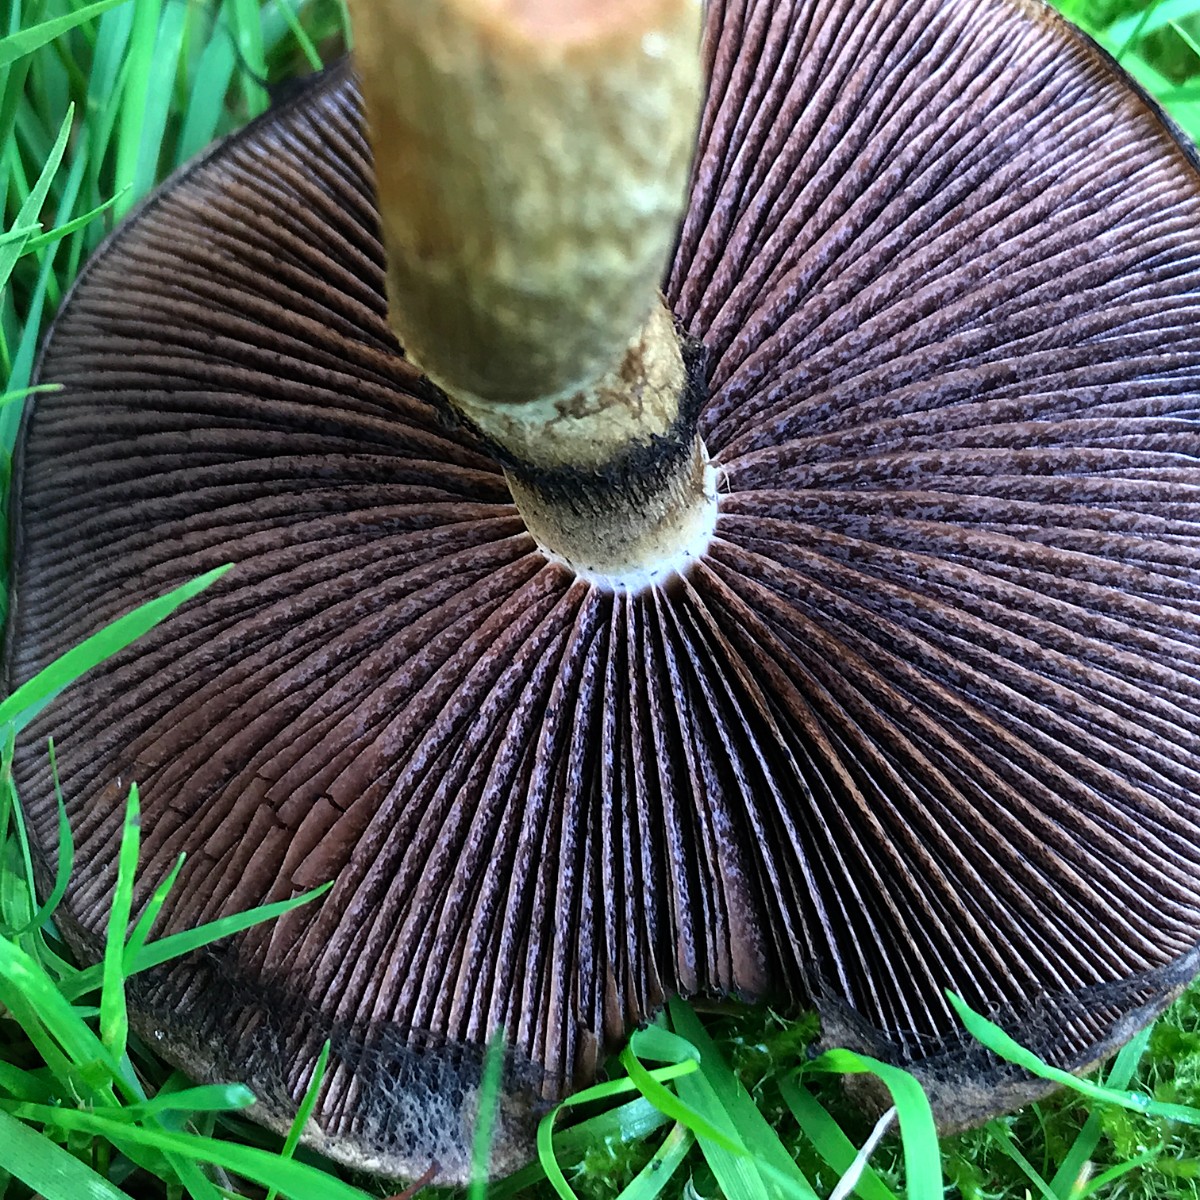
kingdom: Fungi
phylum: Basidiomycota
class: Agaricomycetes
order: Agaricales
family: Psathyrellaceae
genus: Lacrymaria
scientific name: Lacrymaria lacrymabunda
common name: grædende mørkhat
